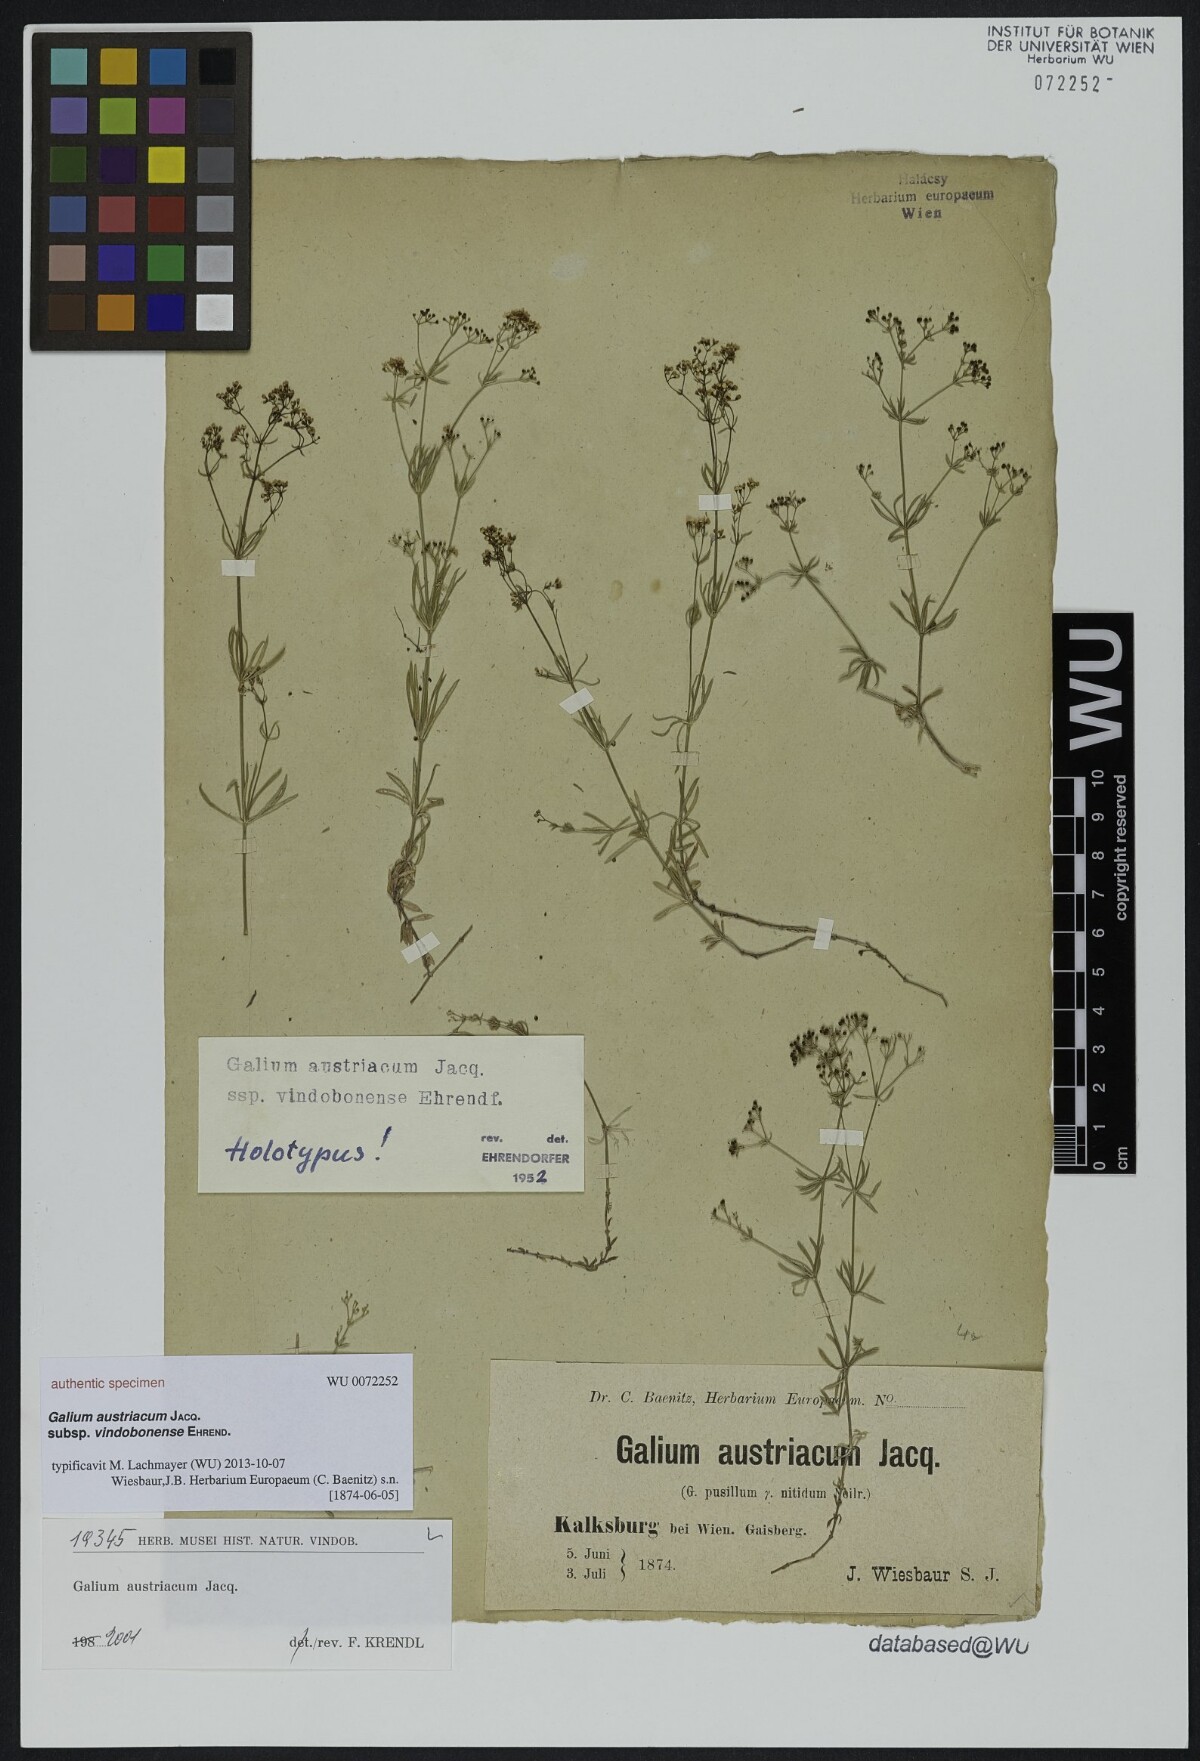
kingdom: Plantae
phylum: Tracheophyta
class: Magnoliopsida
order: Gentianales
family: Rubiaceae
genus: Galium
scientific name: Galium austriacum
